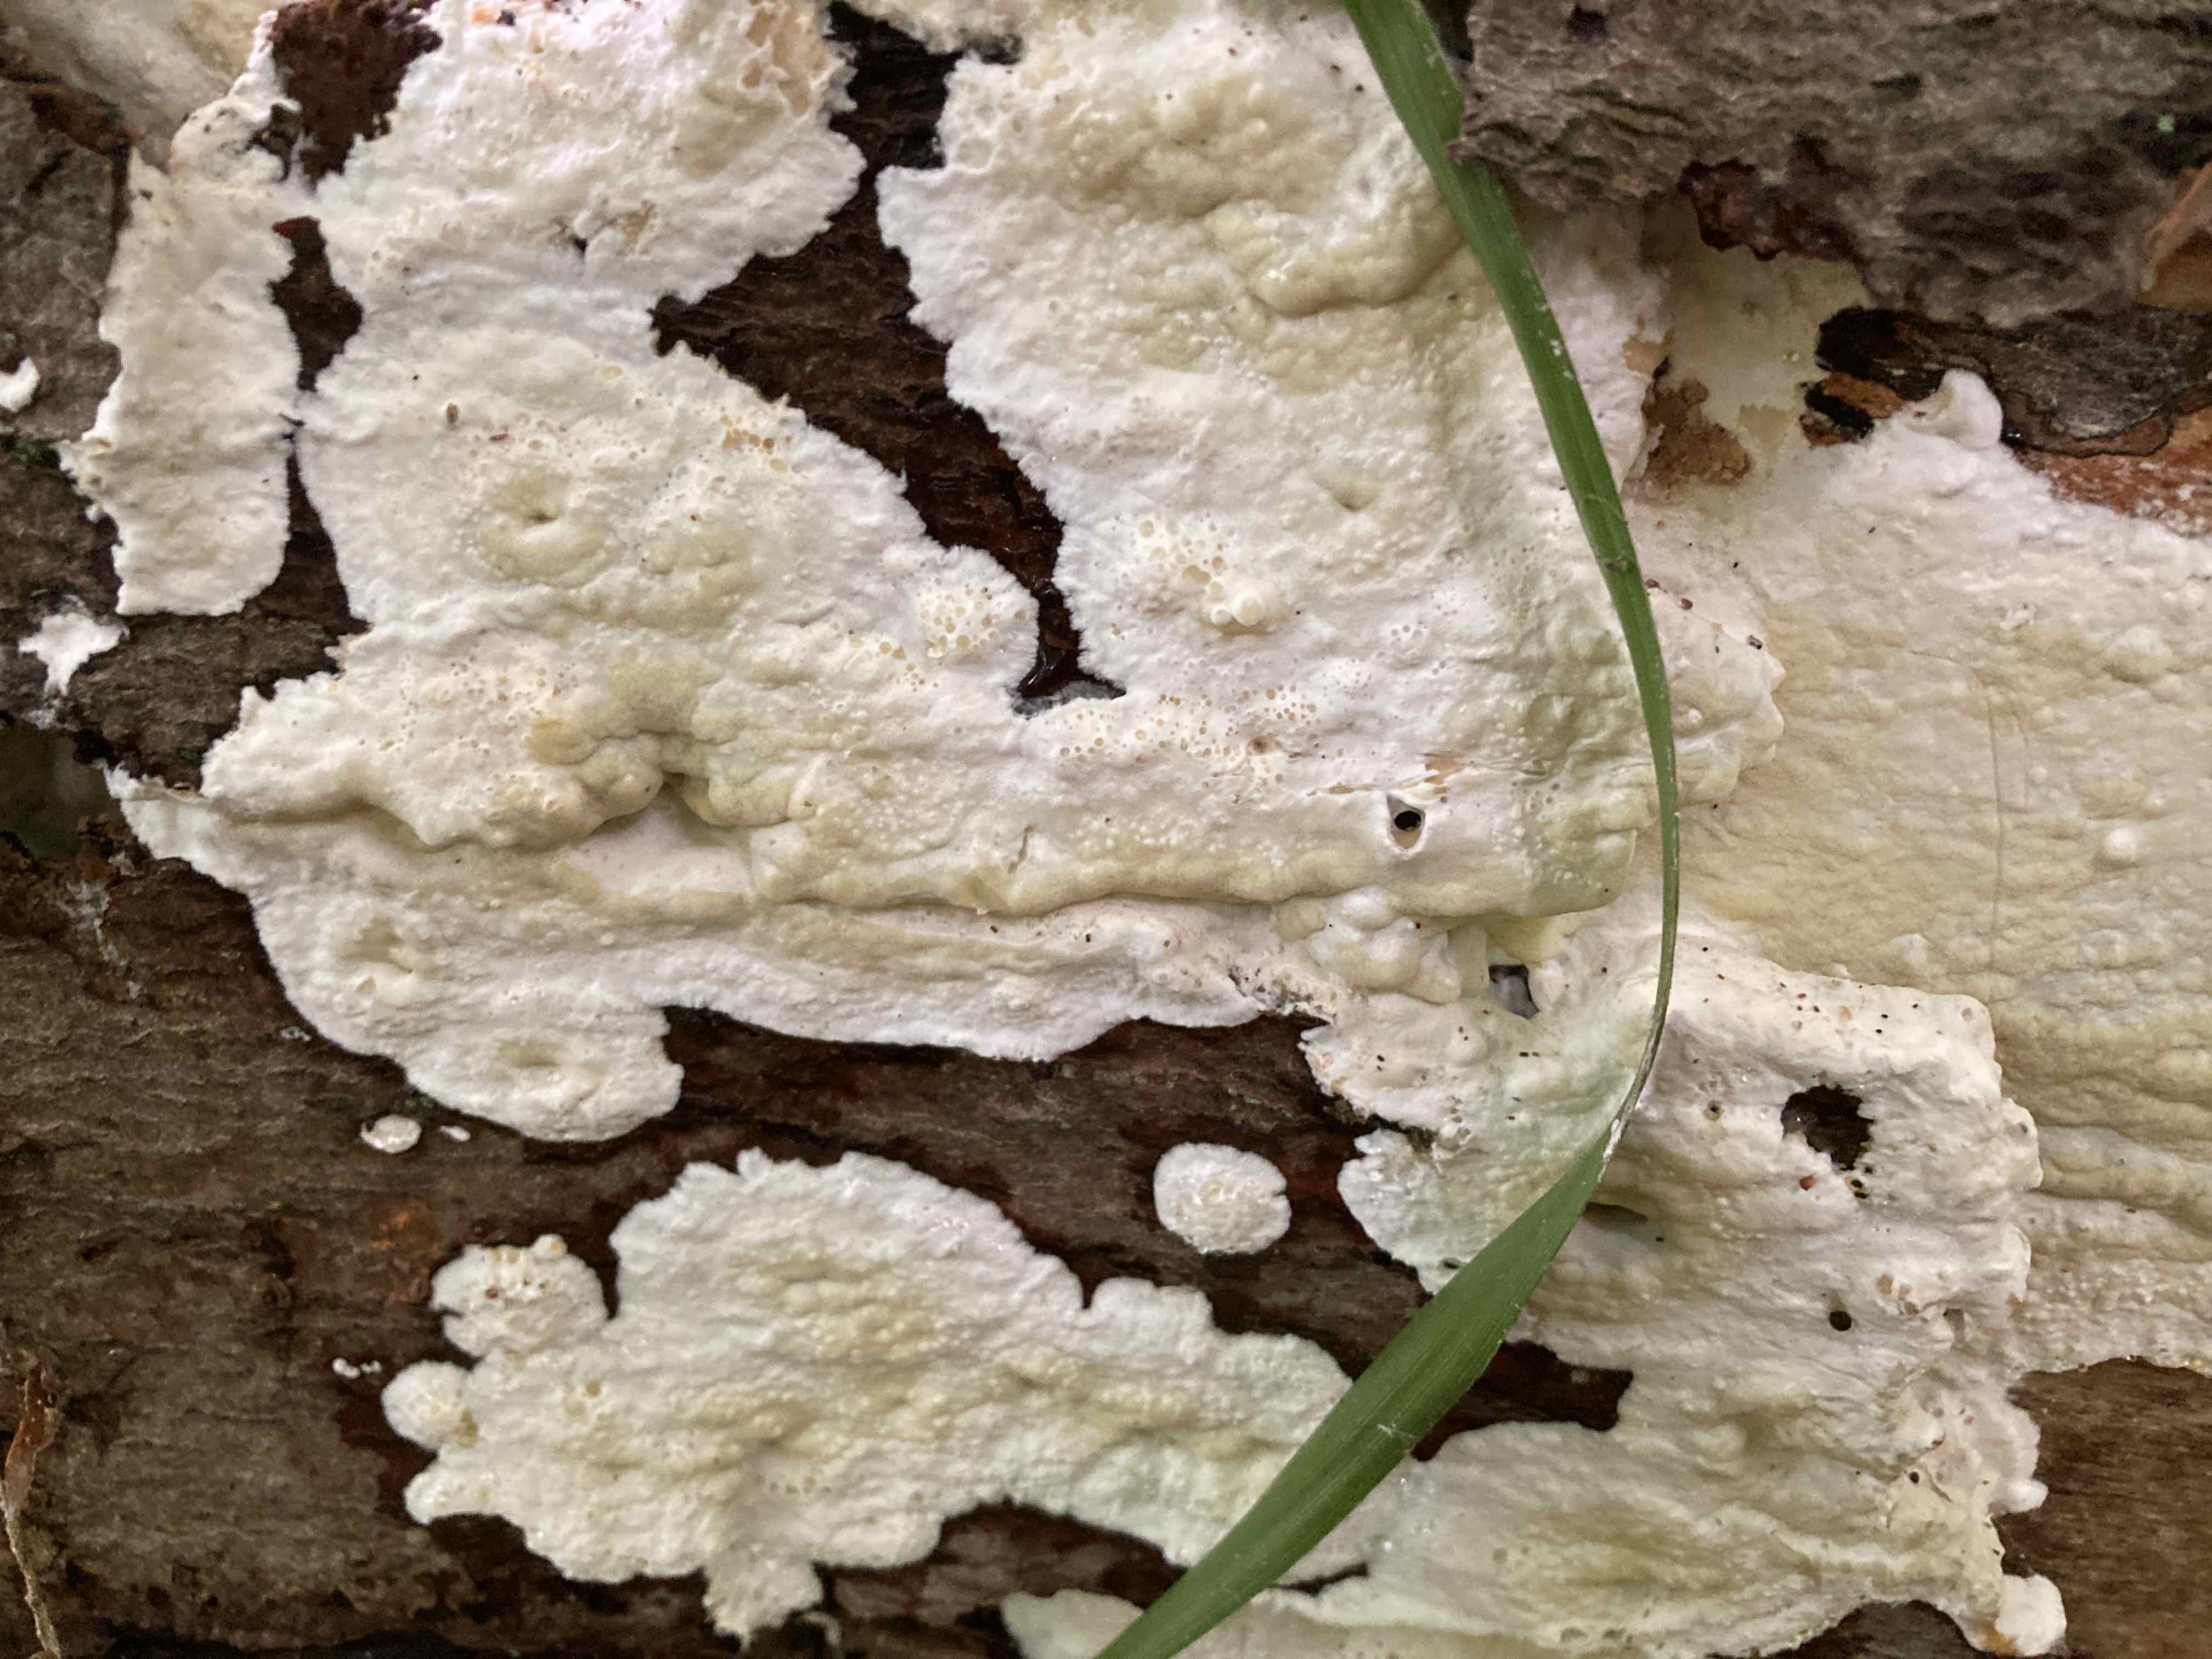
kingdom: Fungi
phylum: Basidiomycota
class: Agaricomycetes
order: Polyporales
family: Irpicaceae
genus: Gloeoporus
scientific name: Gloeoporus pannocinctus
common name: grøngul foldporesvamp
